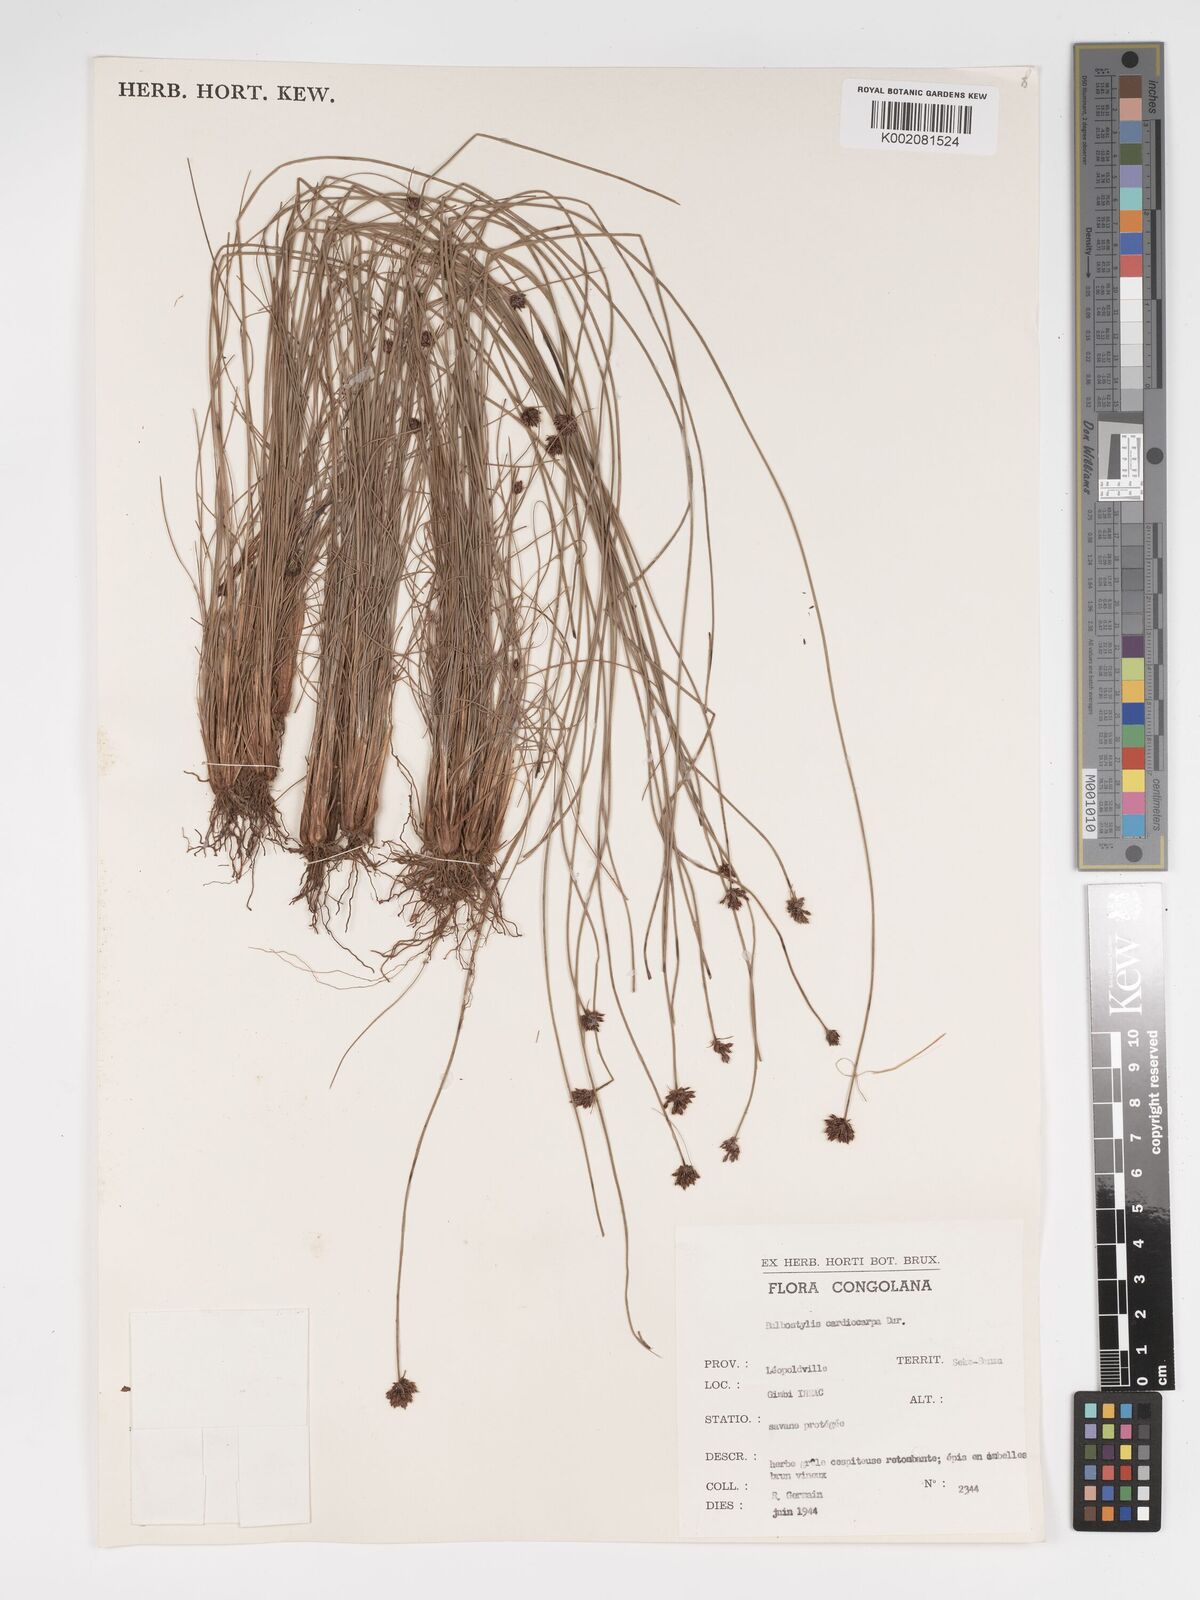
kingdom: Plantae
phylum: Tracheophyta
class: Liliopsida
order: Poales
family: Cyperaceae
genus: Bulbostylis
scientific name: Bulbostylis scabricaulis
